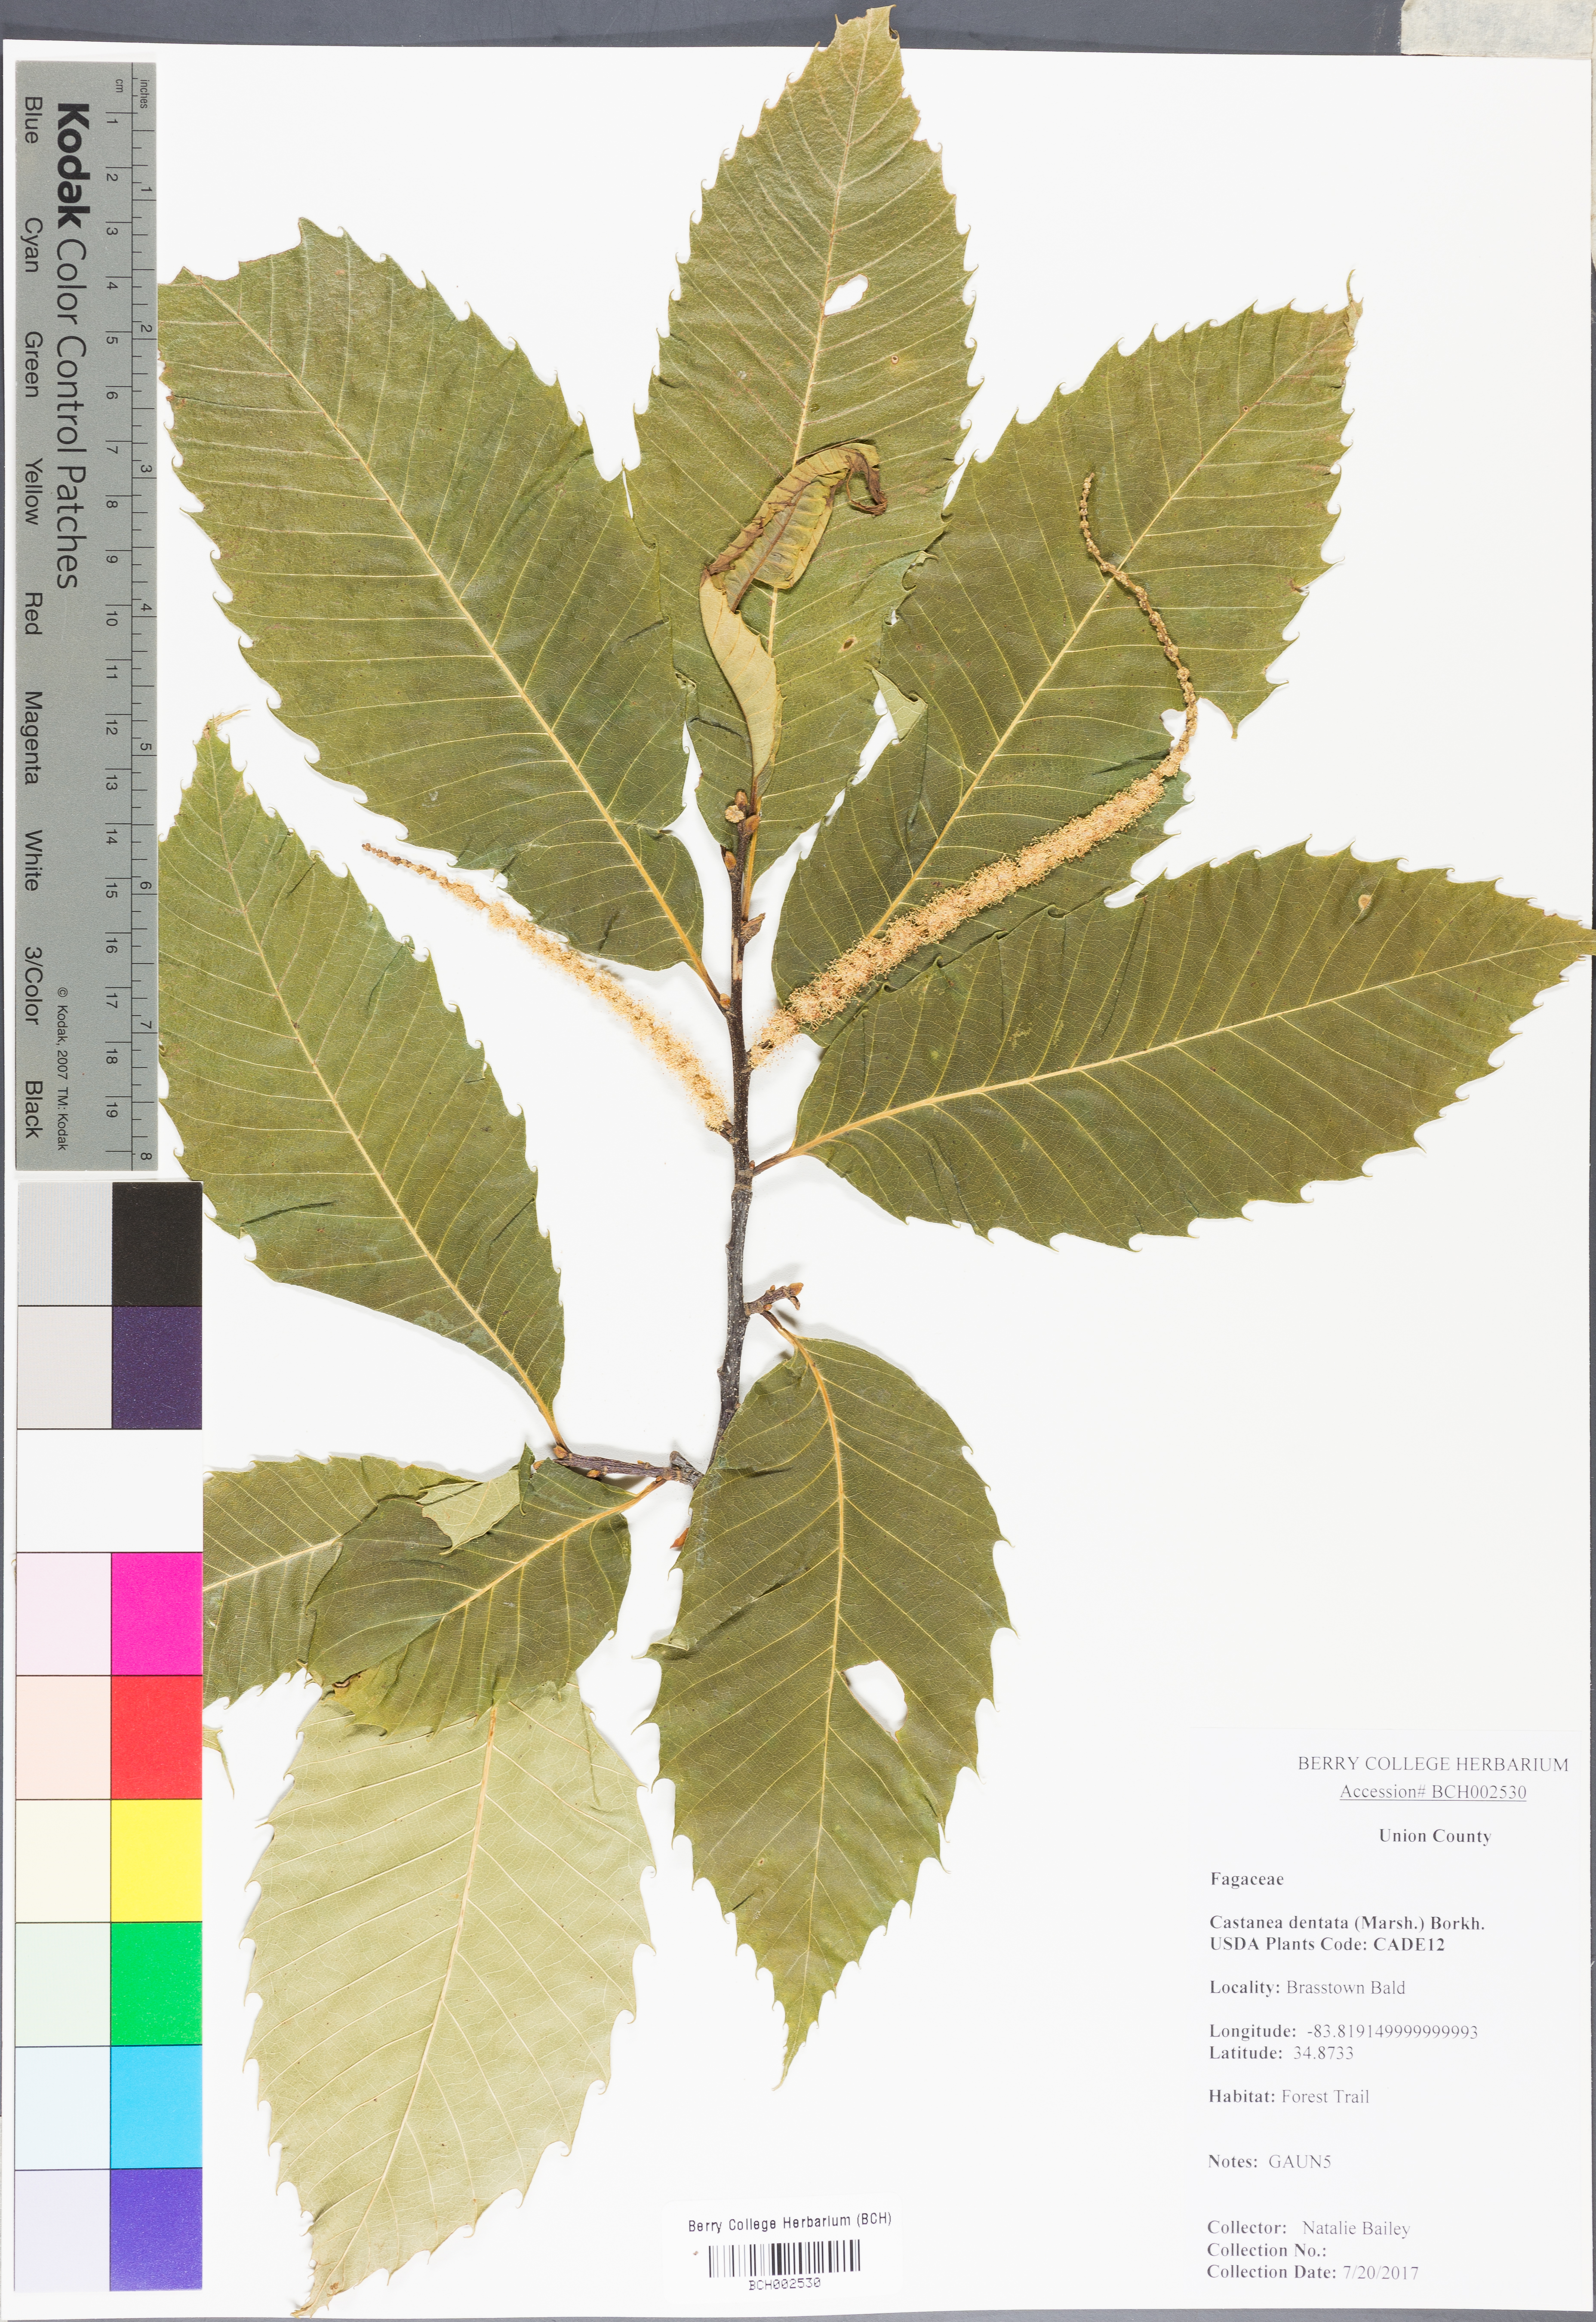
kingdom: Plantae
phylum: Tracheophyta
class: Magnoliopsida
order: Fagales
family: Fagaceae
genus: Castanea
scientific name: Castanea dentata
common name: American chestnut
